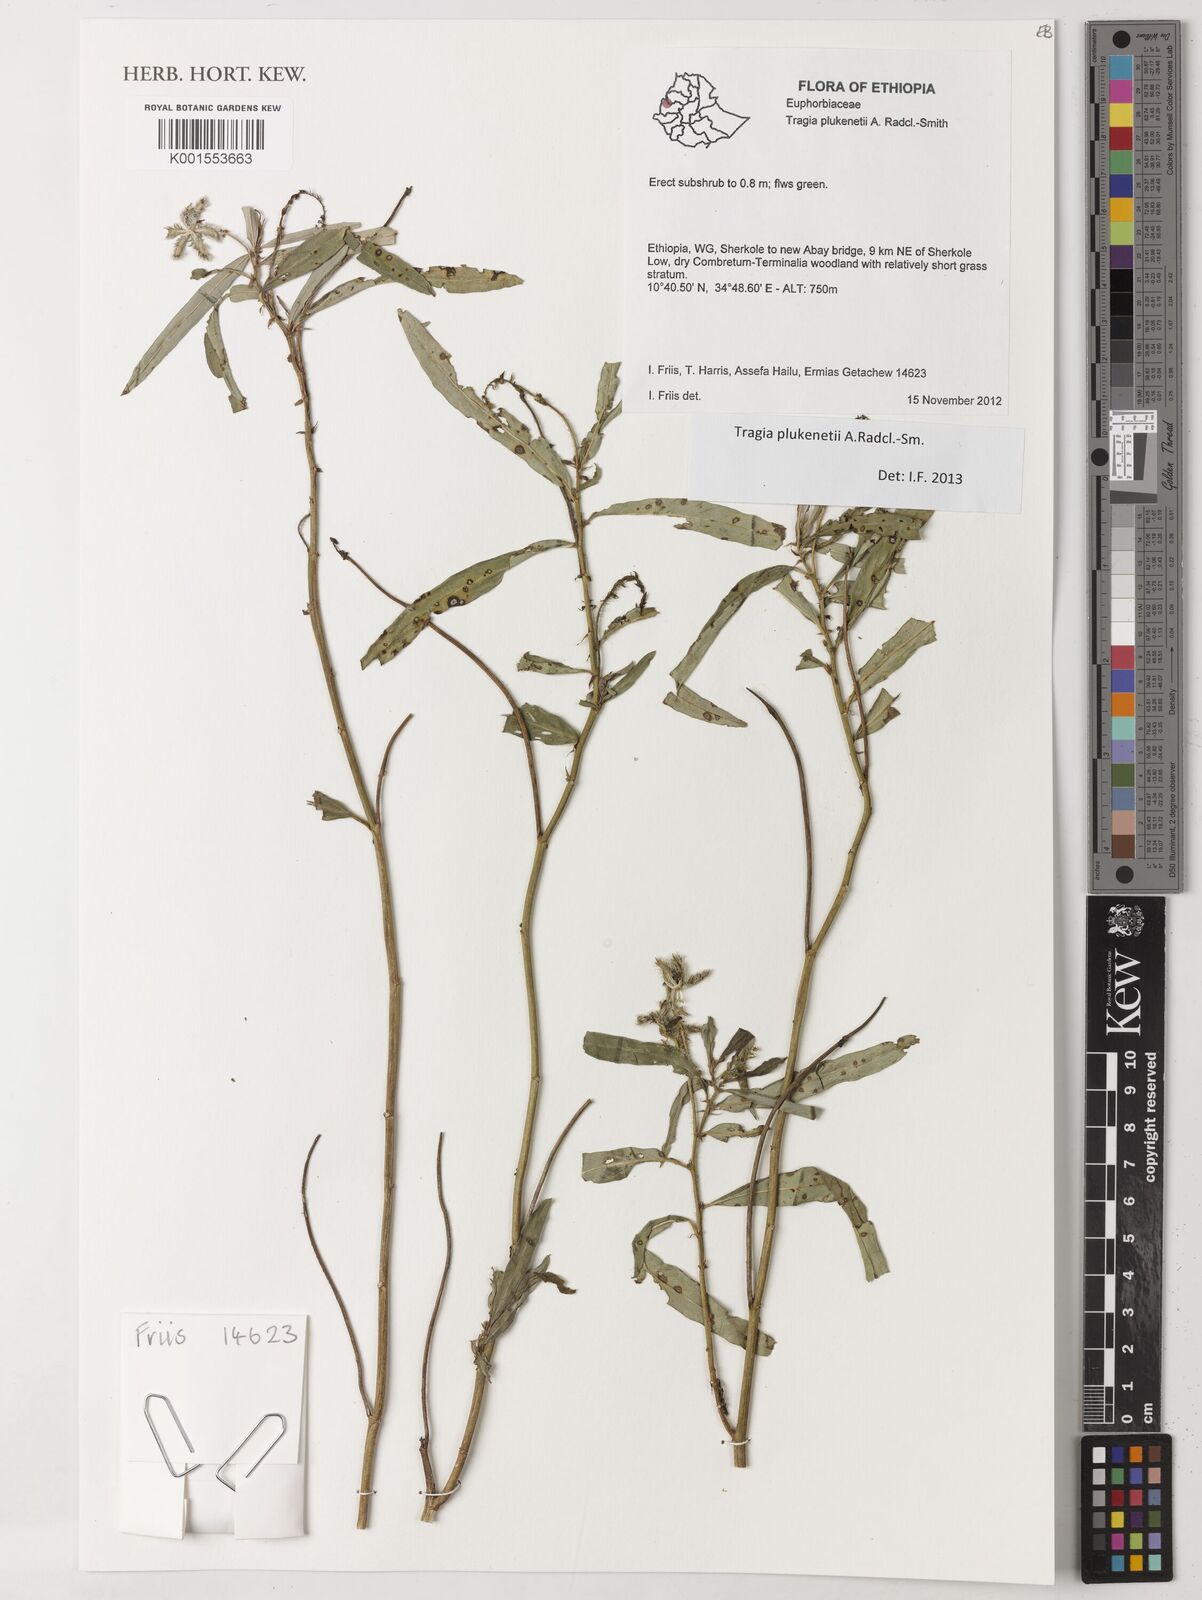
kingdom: Plantae
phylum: Tracheophyta
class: Magnoliopsida
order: Malpighiales
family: Euphorbiaceae
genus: Tragia
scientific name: Tragia plukenetii
